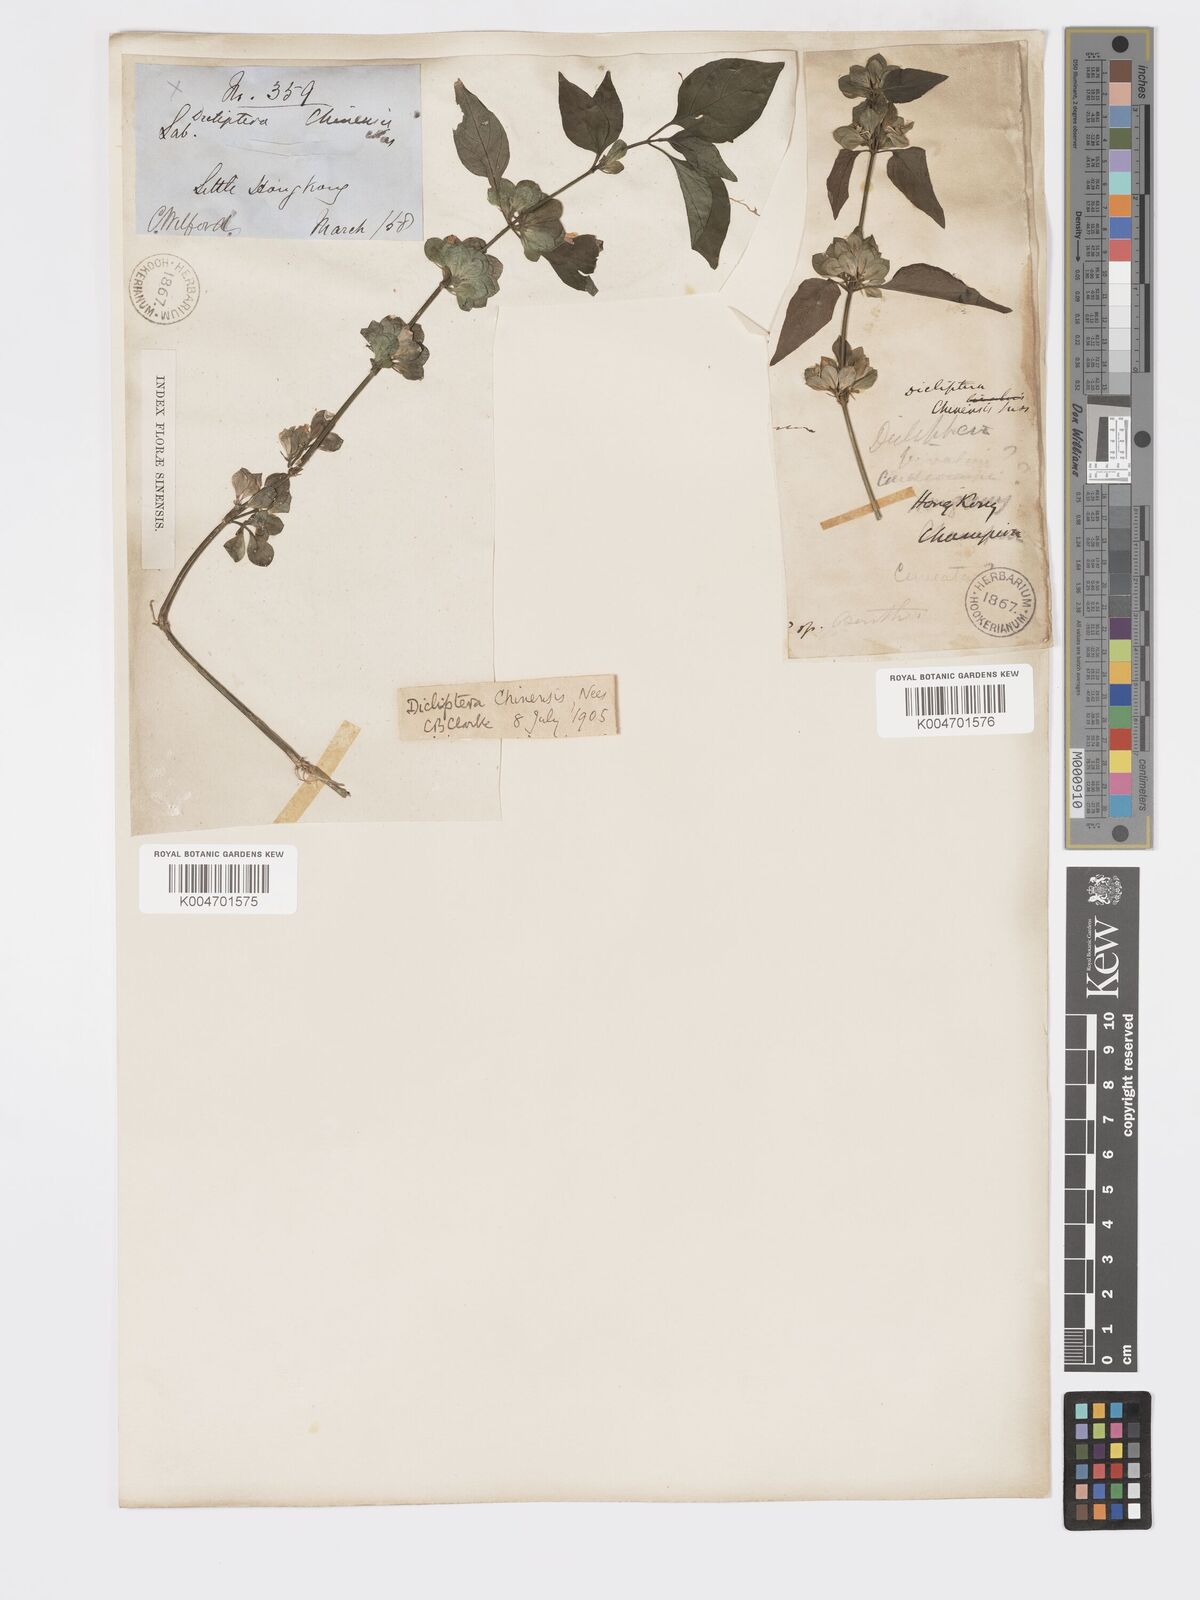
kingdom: Plantae
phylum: Tracheophyta
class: Magnoliopsida
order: Lamiales
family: Acanthaceae
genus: Dicliptera
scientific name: Dicliptera chinensis
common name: Chinese foldwing
